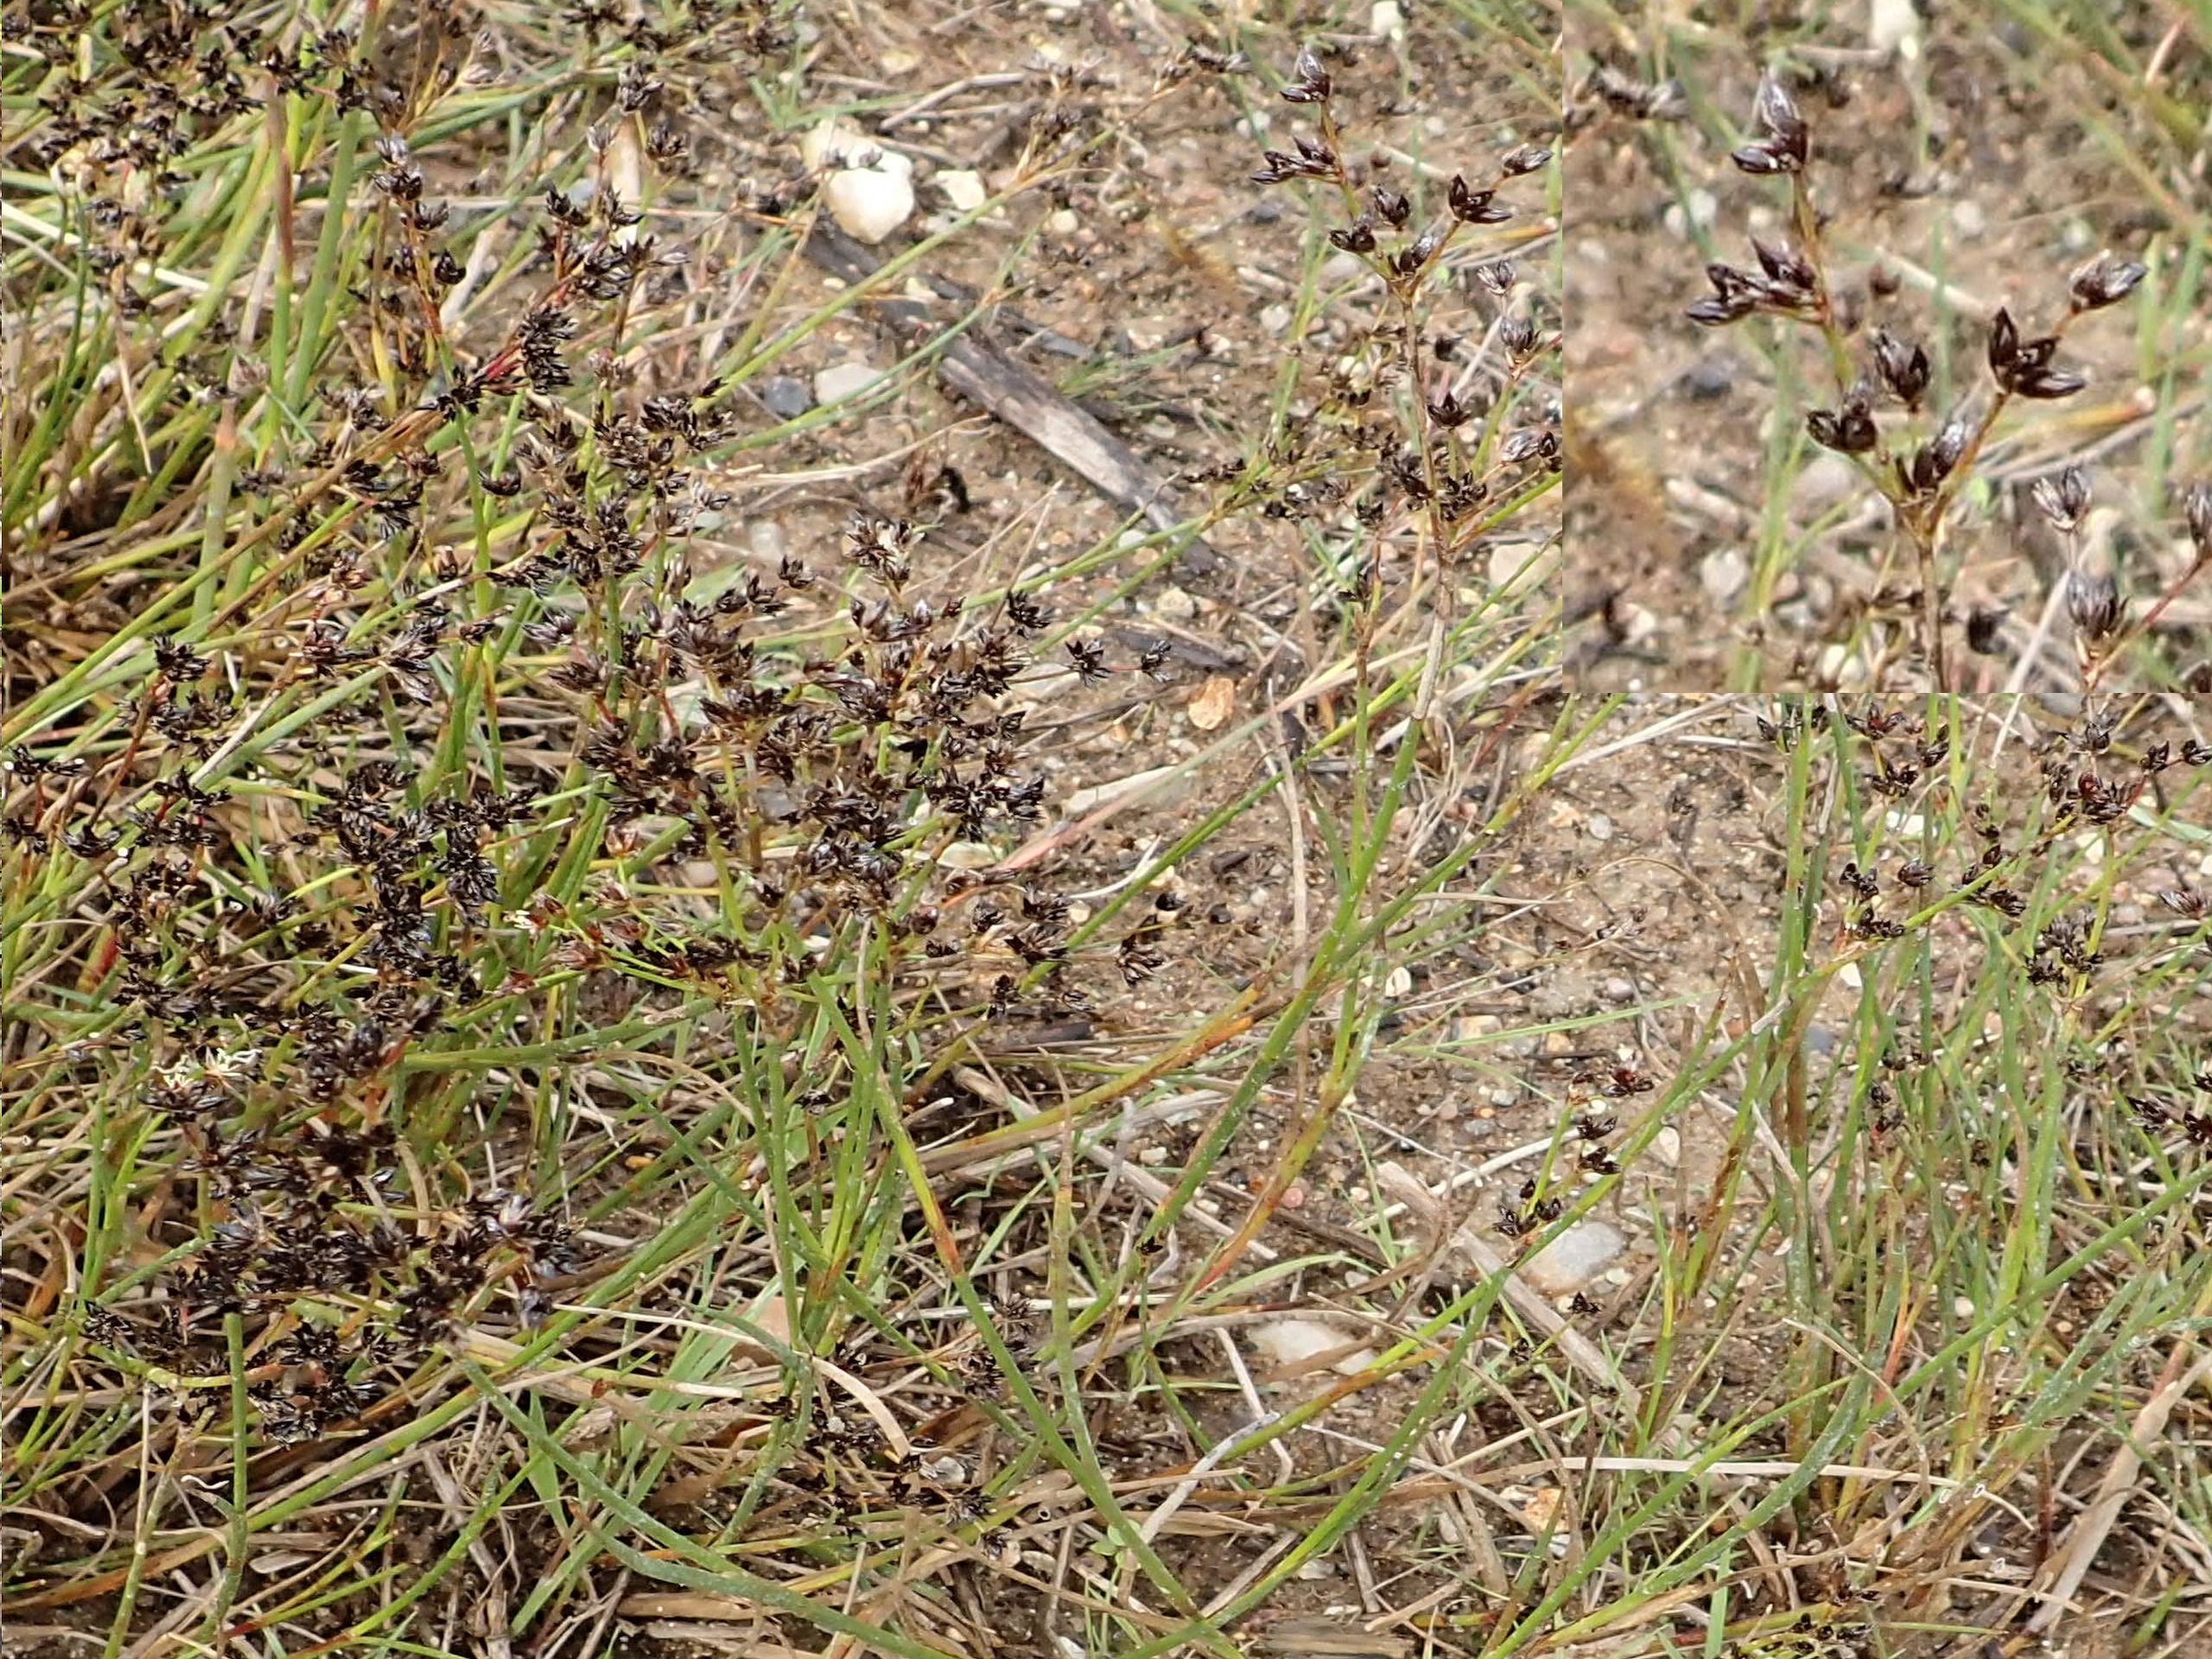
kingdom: Plantae
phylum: Tracheophyta
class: Liliopsida
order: Poales
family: Juncaceae
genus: Juncus
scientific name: Juncus articulatus
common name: Glanskapslet siv
